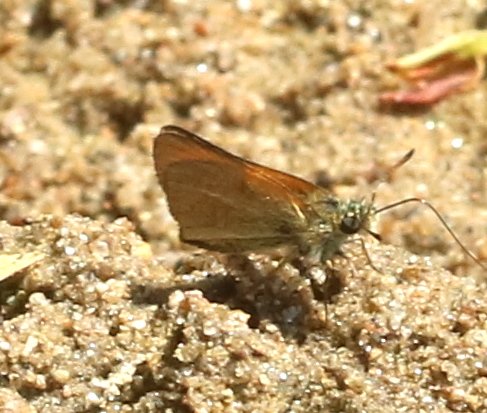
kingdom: Animalia
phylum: Arthropoda
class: Insecta
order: Lepidoptera
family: Hesperiidae
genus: Thymelicus
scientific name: Thymelicus lineola
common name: European Skipper
